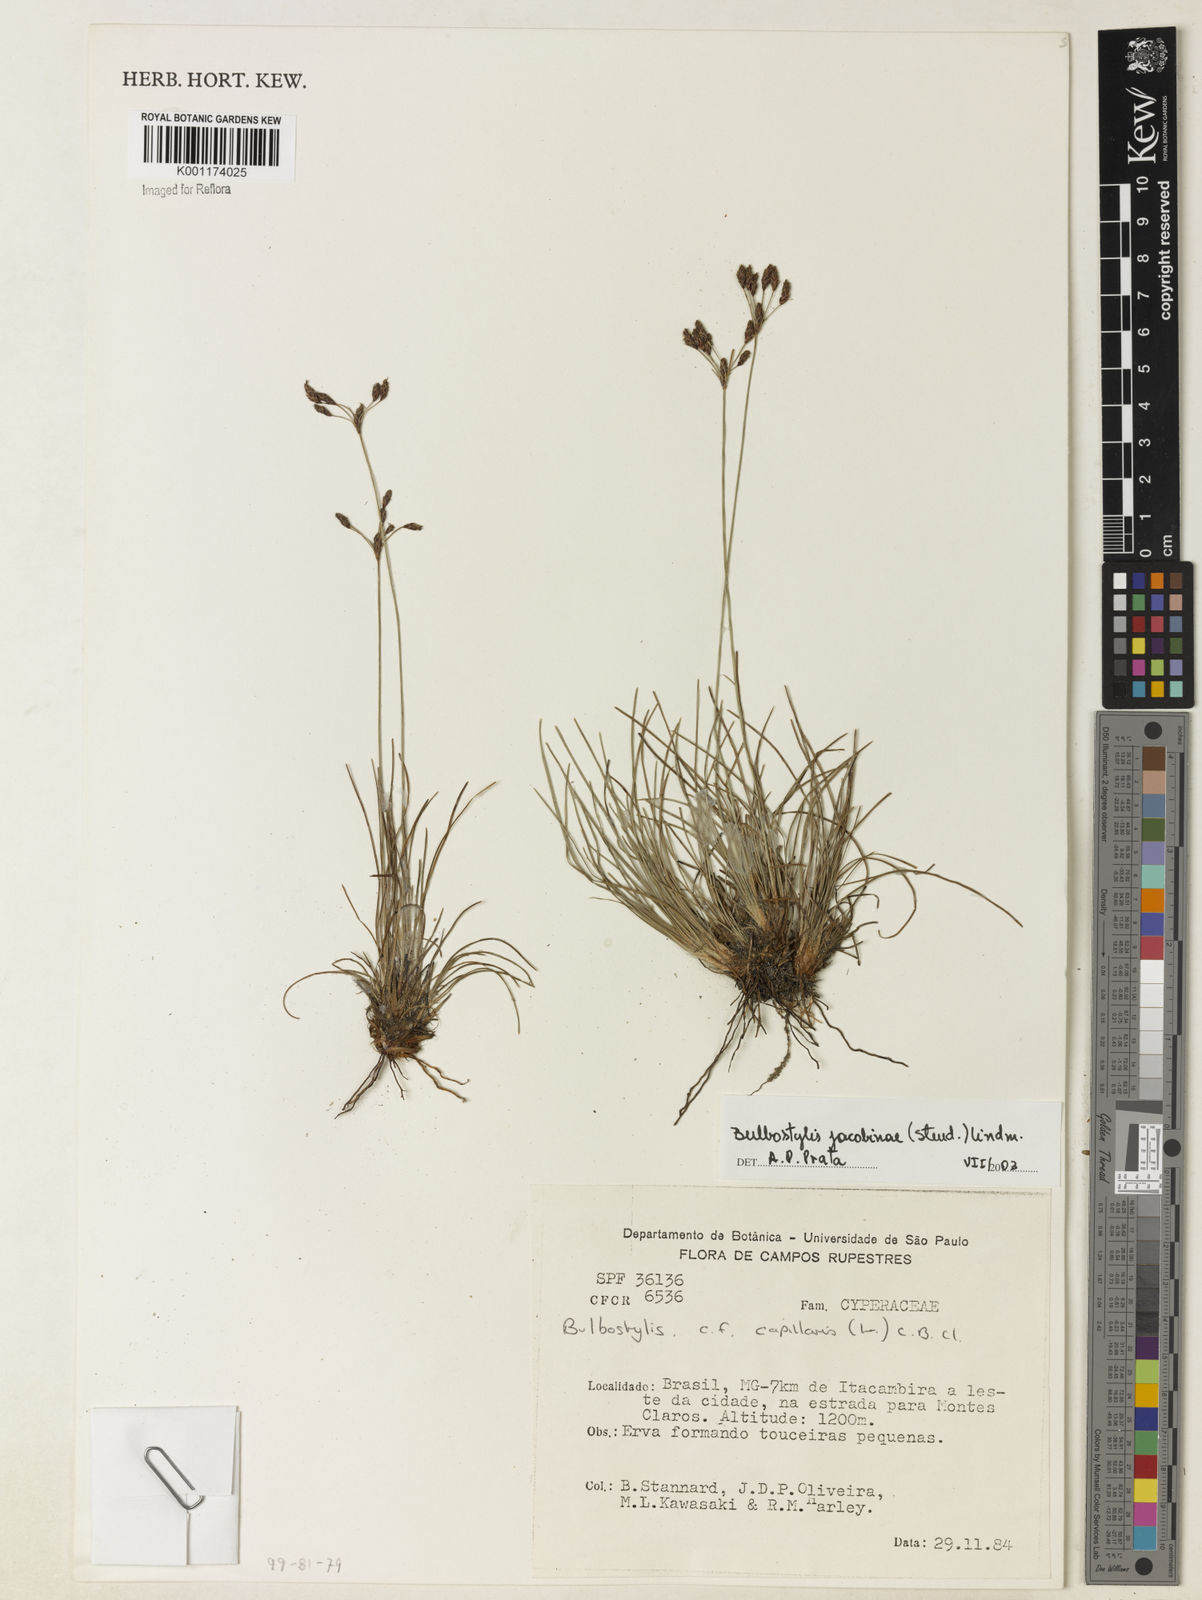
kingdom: Plantae
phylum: Tracheophyta
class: Liliopsida
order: Poales
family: Cyperaceae
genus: Bulbostylis
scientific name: Bulbostylis jacobinae
